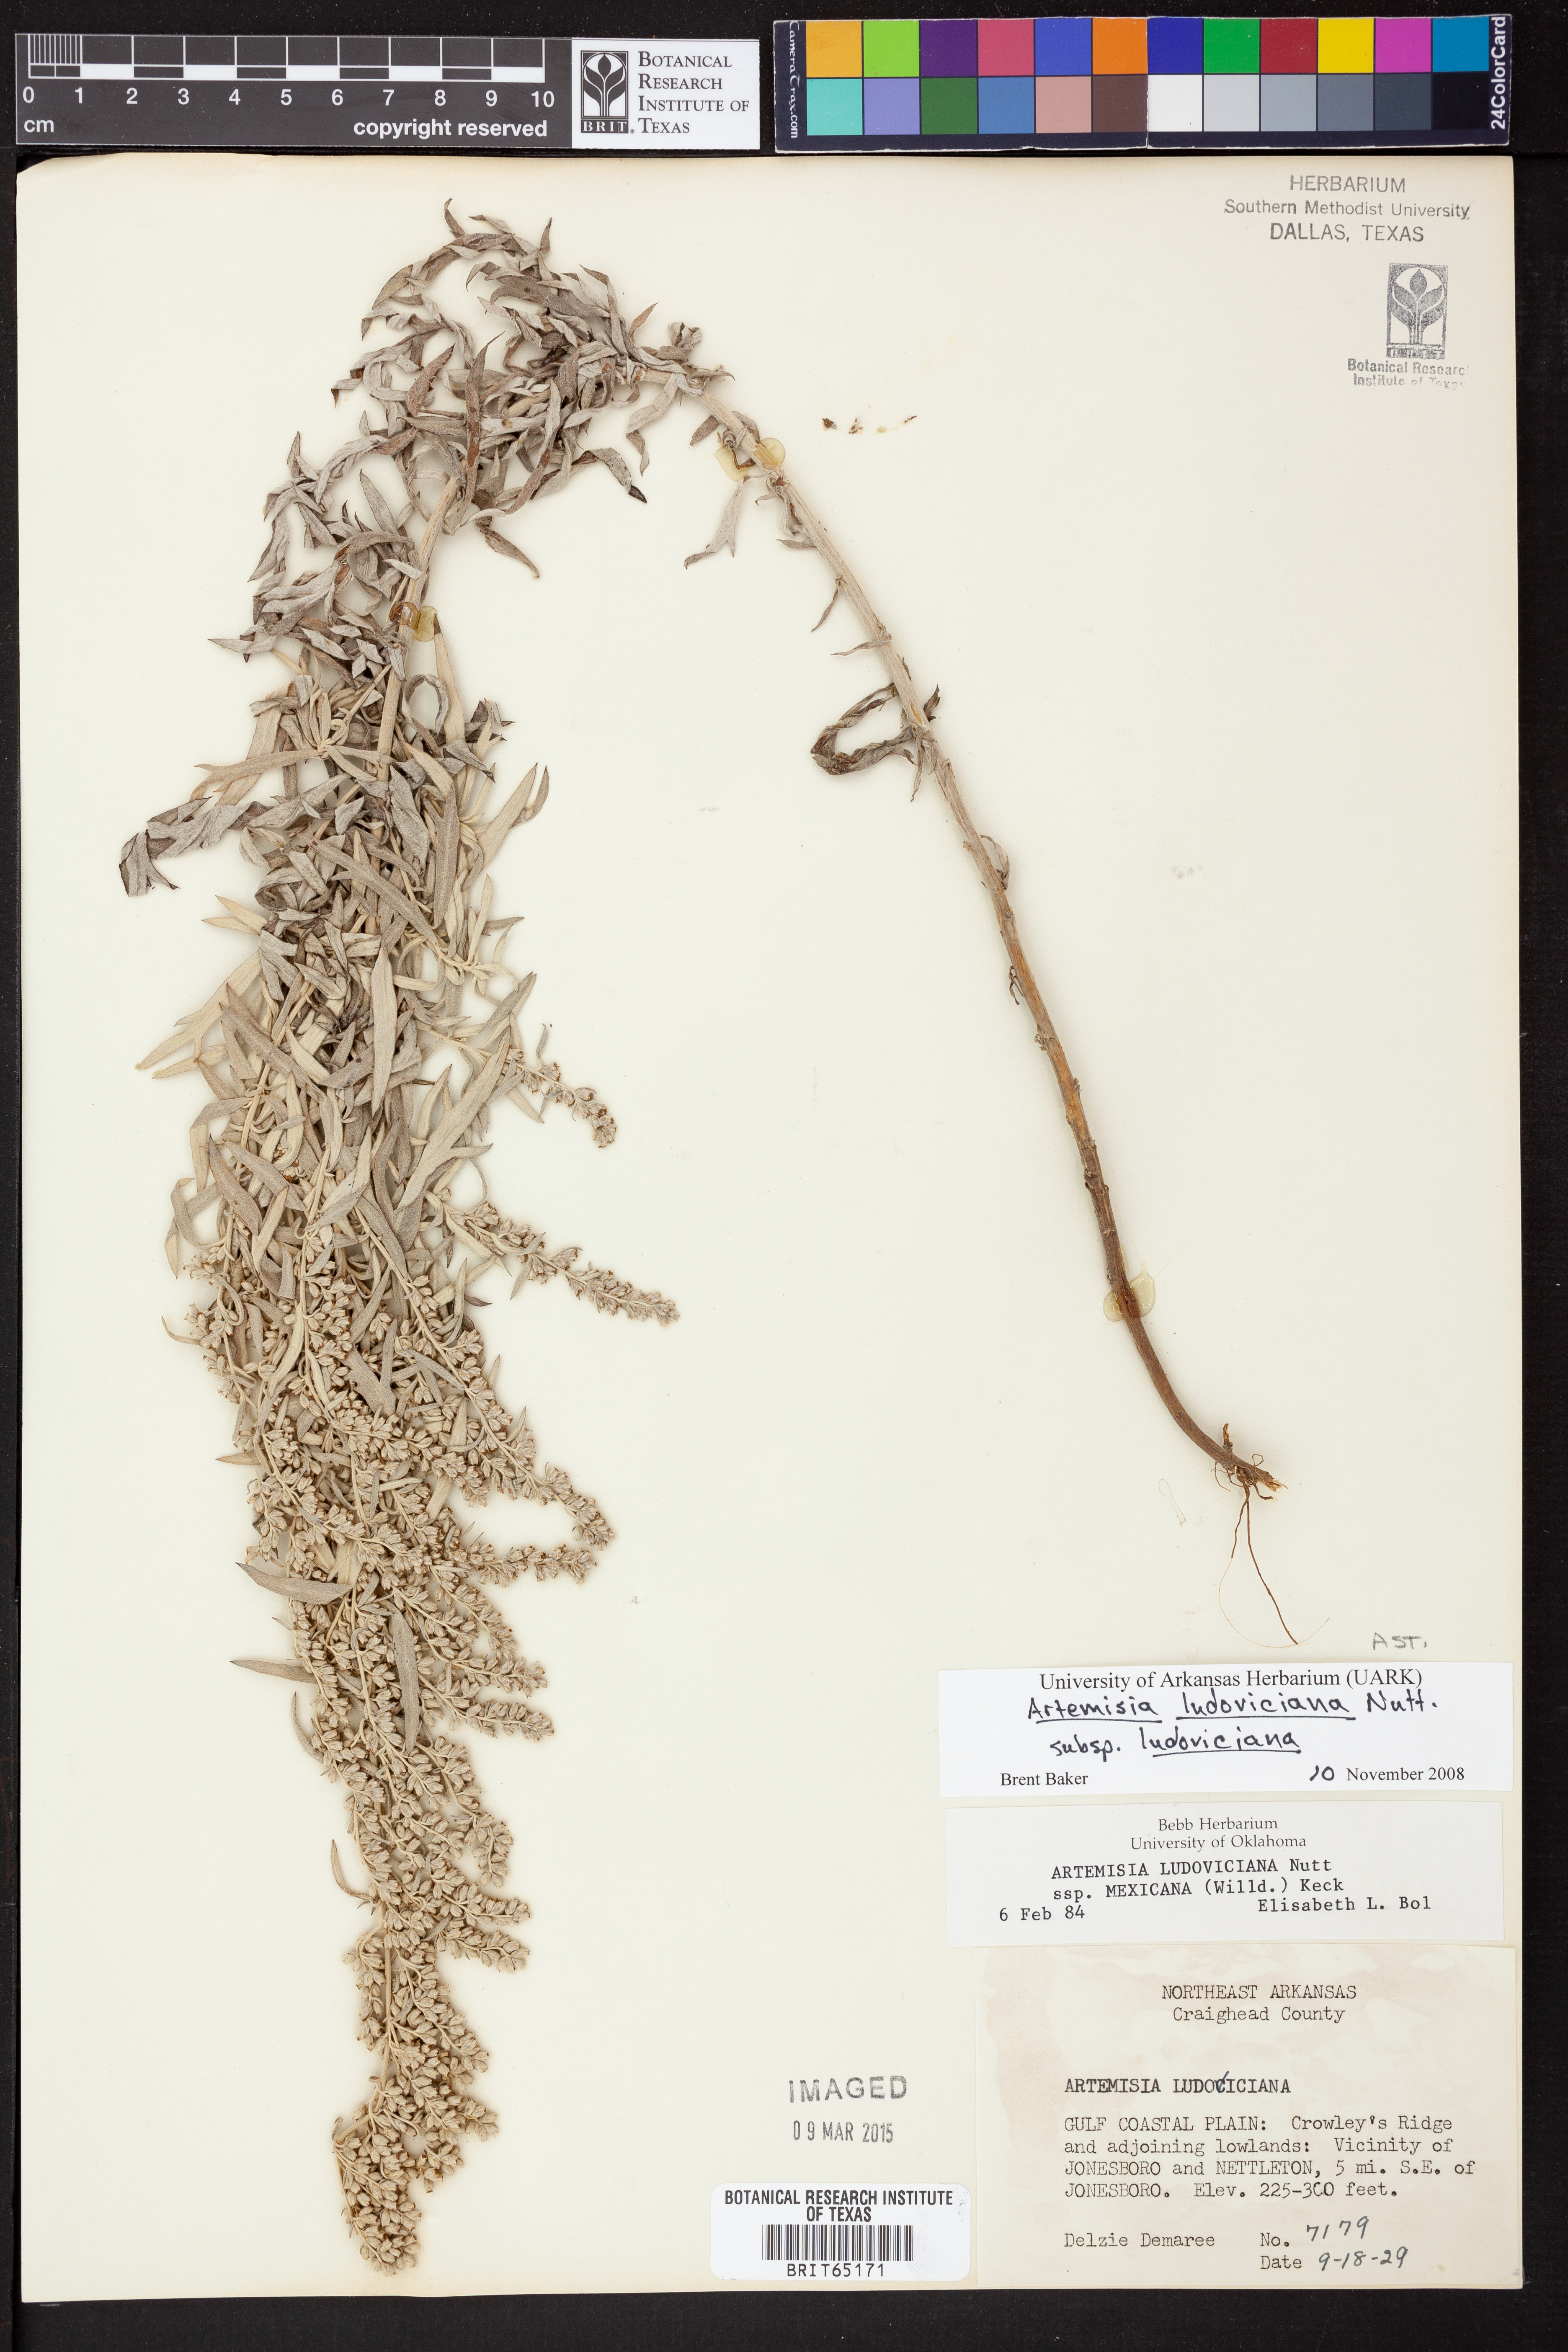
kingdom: Plantae
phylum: Tracheophyta
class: Magnoliopsida
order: Asterales
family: Asteraceae
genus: Artemisia
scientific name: Artemisia ludoviciana
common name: Western mugwort
